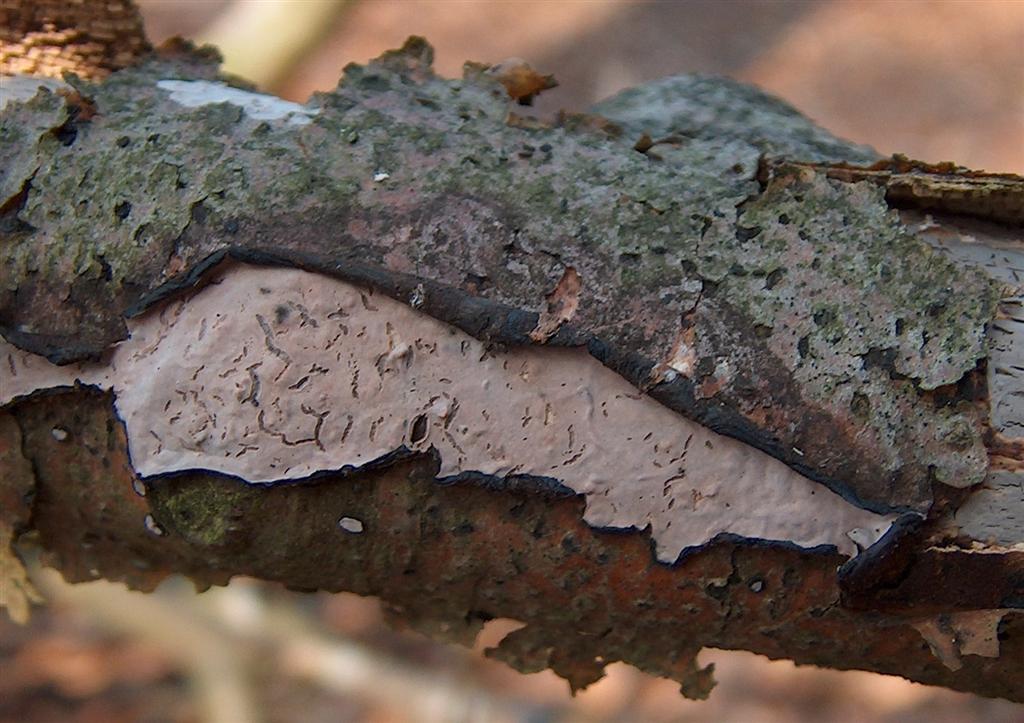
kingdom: Fungi
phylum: Basidiomycota
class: Agaricomycetes
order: Russulales
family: Peniophoraceae
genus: Peniophora
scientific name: Peniophora quercina
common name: ege-voksskind
